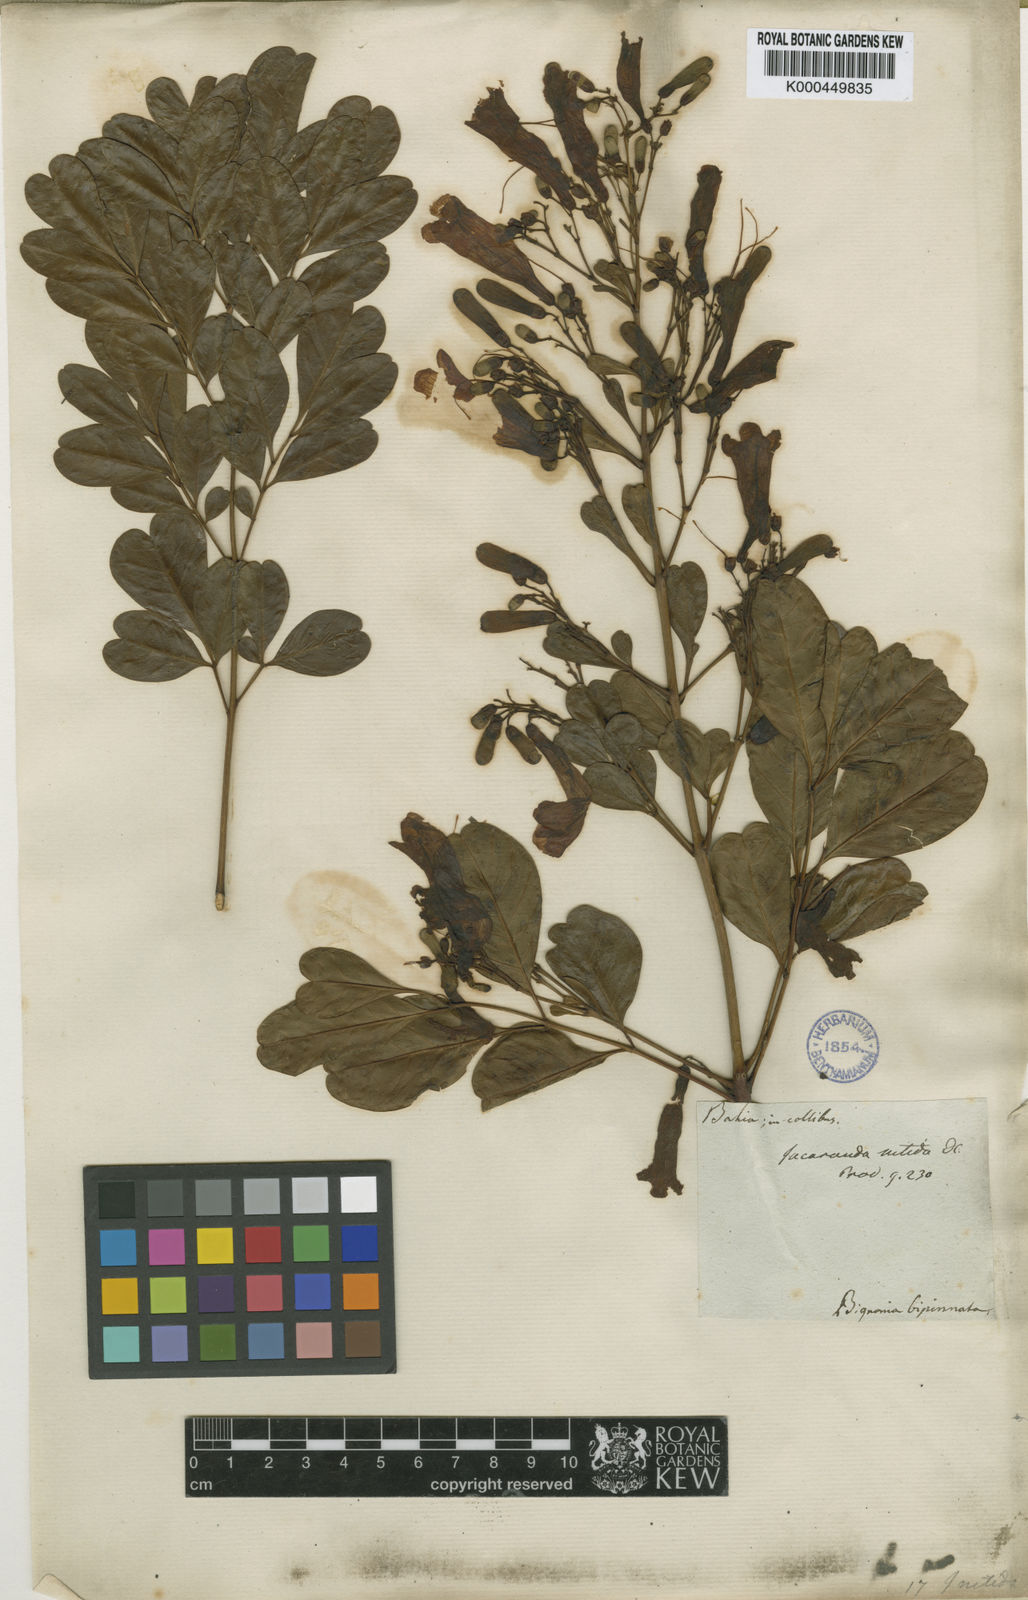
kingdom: Plantae
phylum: Tracheophyta
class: Magnoliopsida
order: Lamiales
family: Bignoniaceae
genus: Jacaranda
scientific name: Jacaranda obovata
